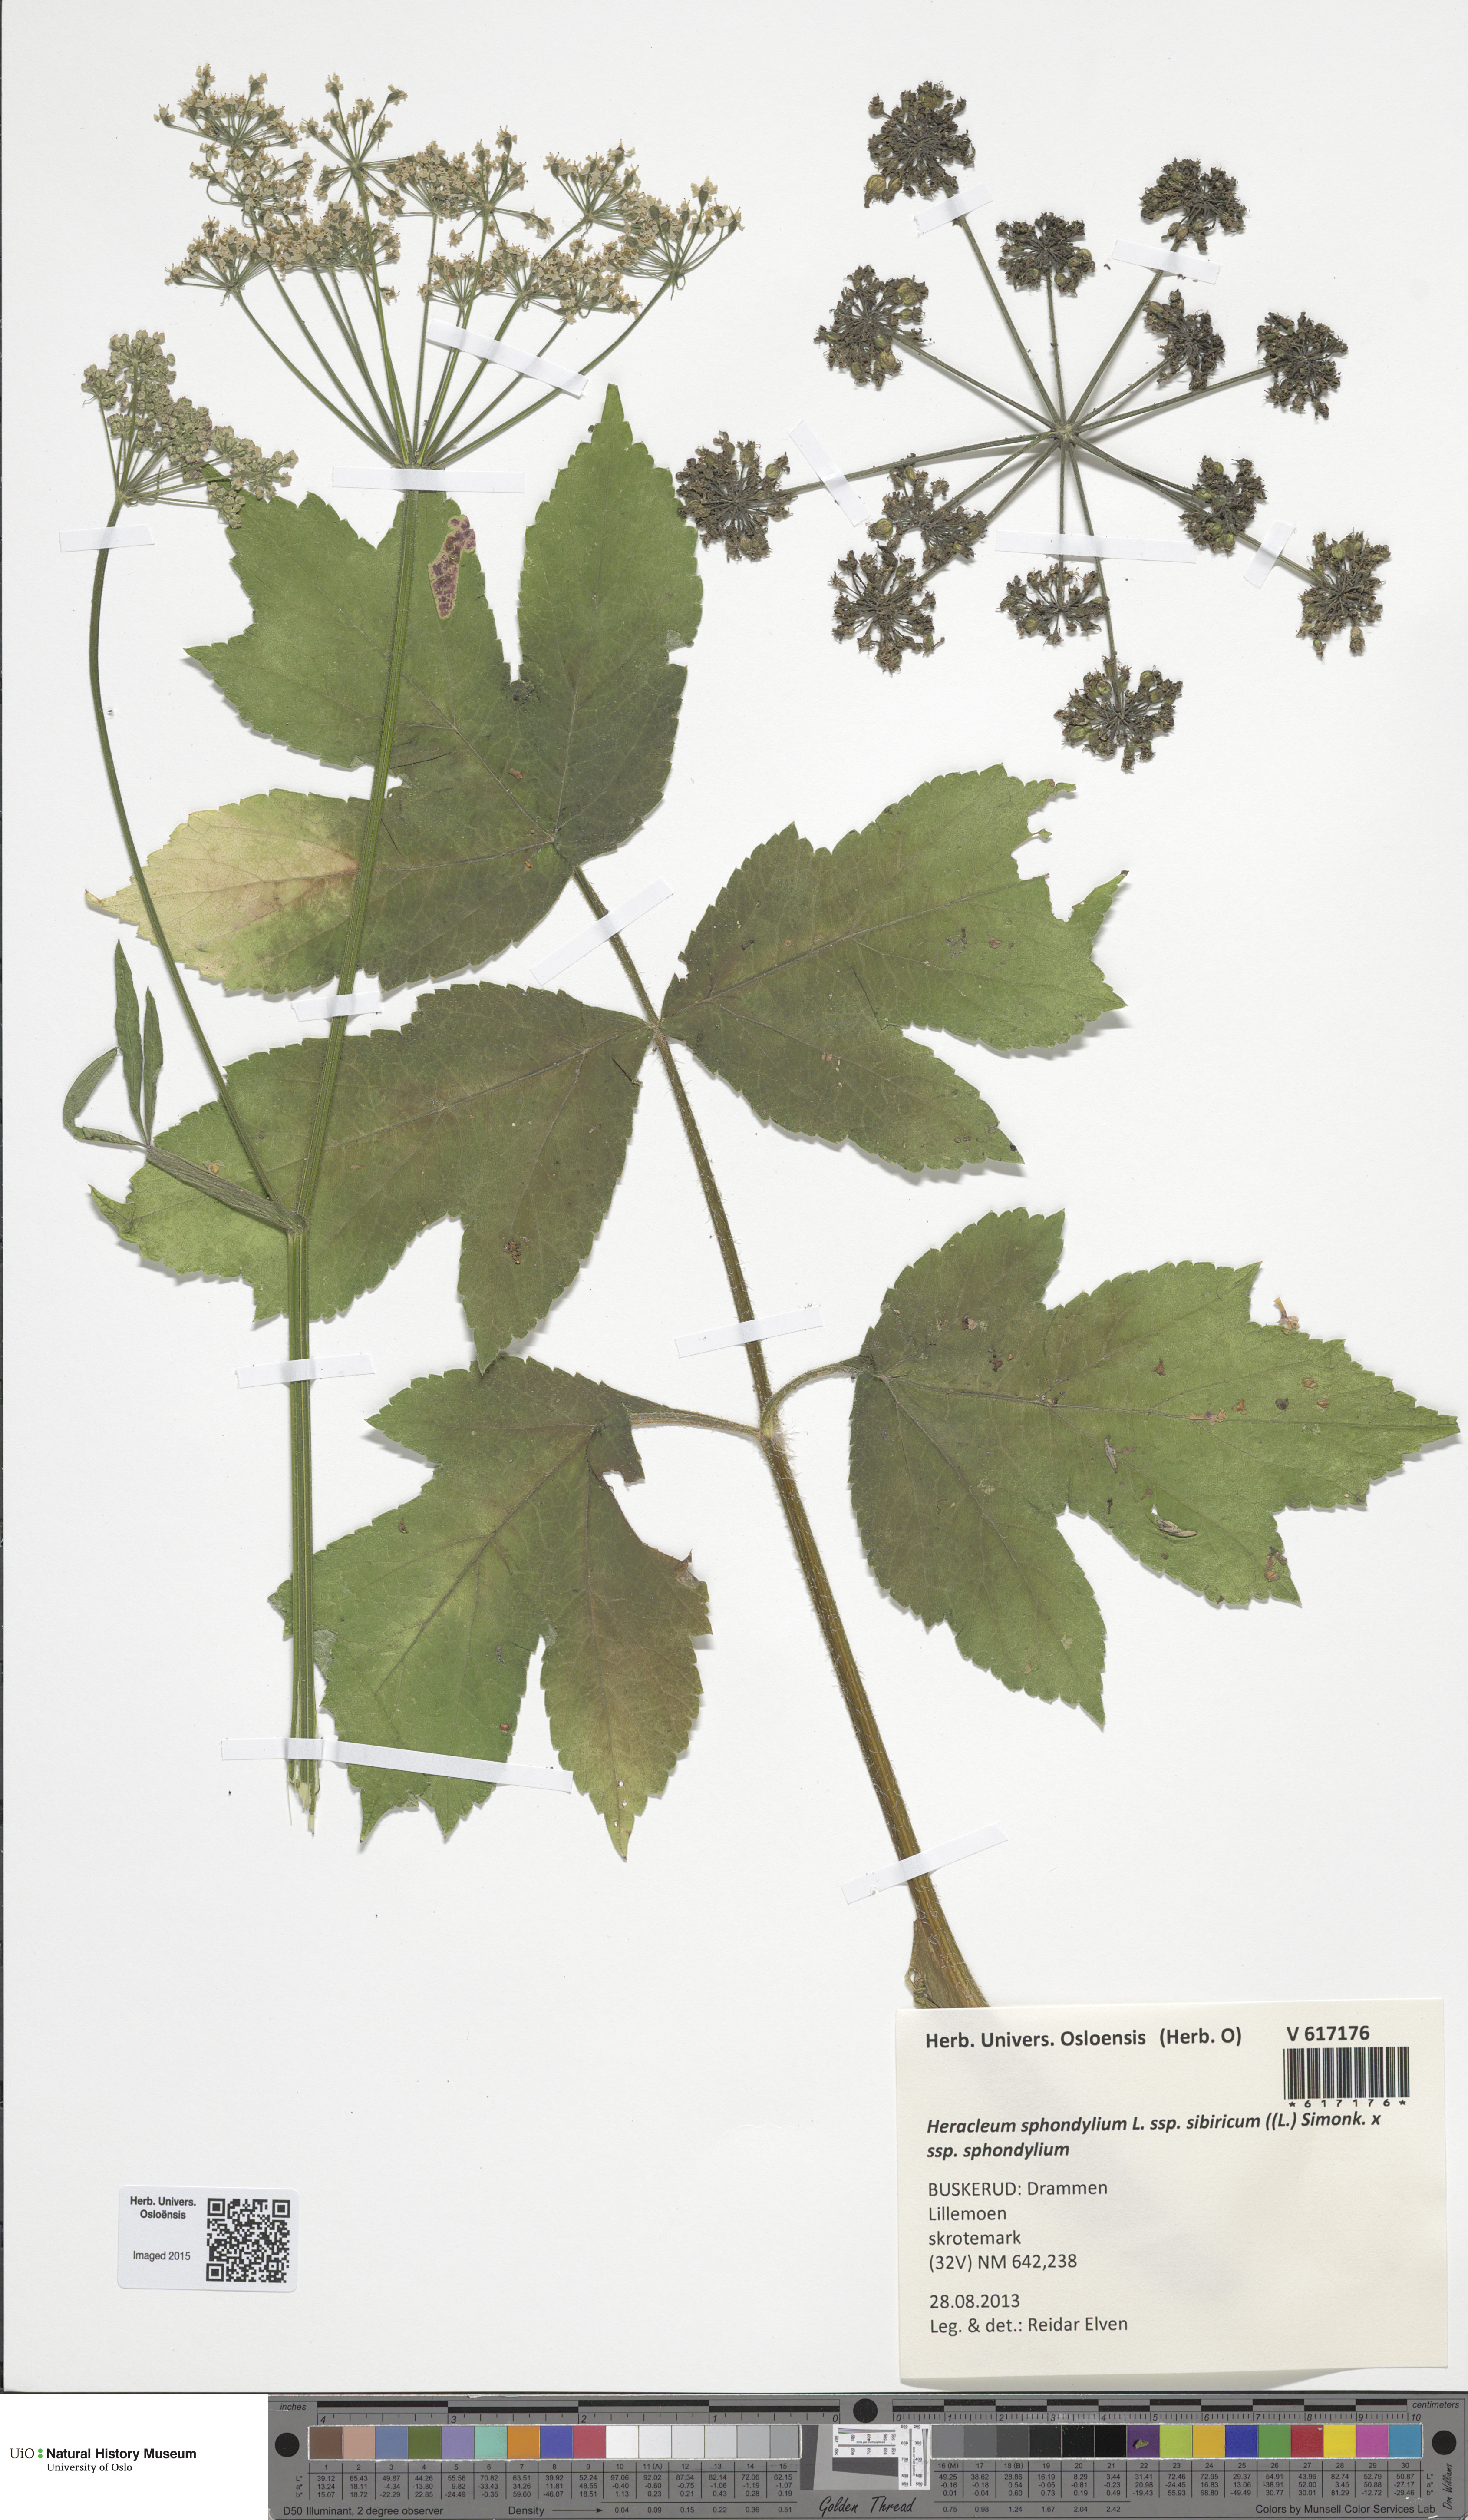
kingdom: Plantae
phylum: Tracheophyta
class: Magnoliopsida
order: Apiales
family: Apiaceae
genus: Heracleum
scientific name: Heracleum
